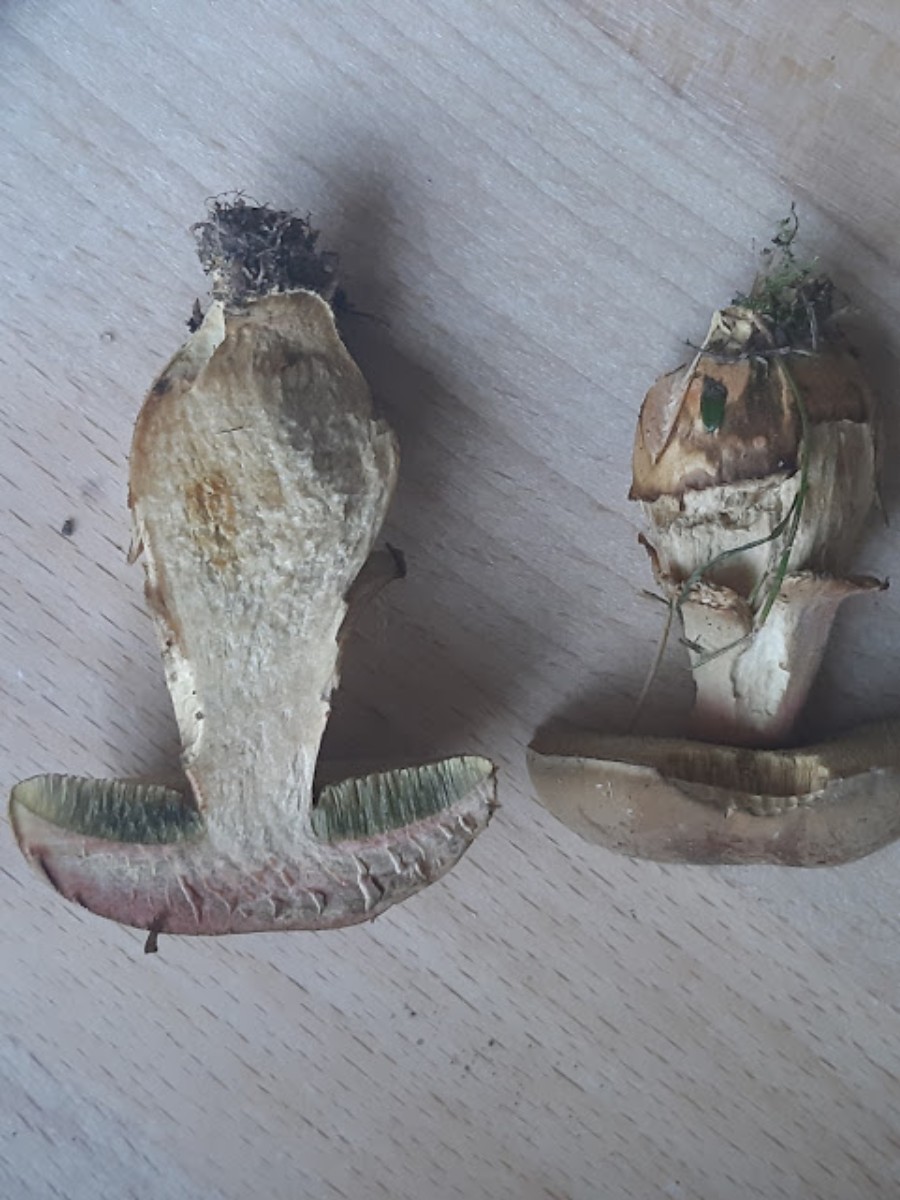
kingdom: Fungi
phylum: Basidiomycota
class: Agaricomycetes
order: Boletales
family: Boletaceae
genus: Hortiboletus
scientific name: Hortiboletus bubalinus
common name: aurora-rørhat
